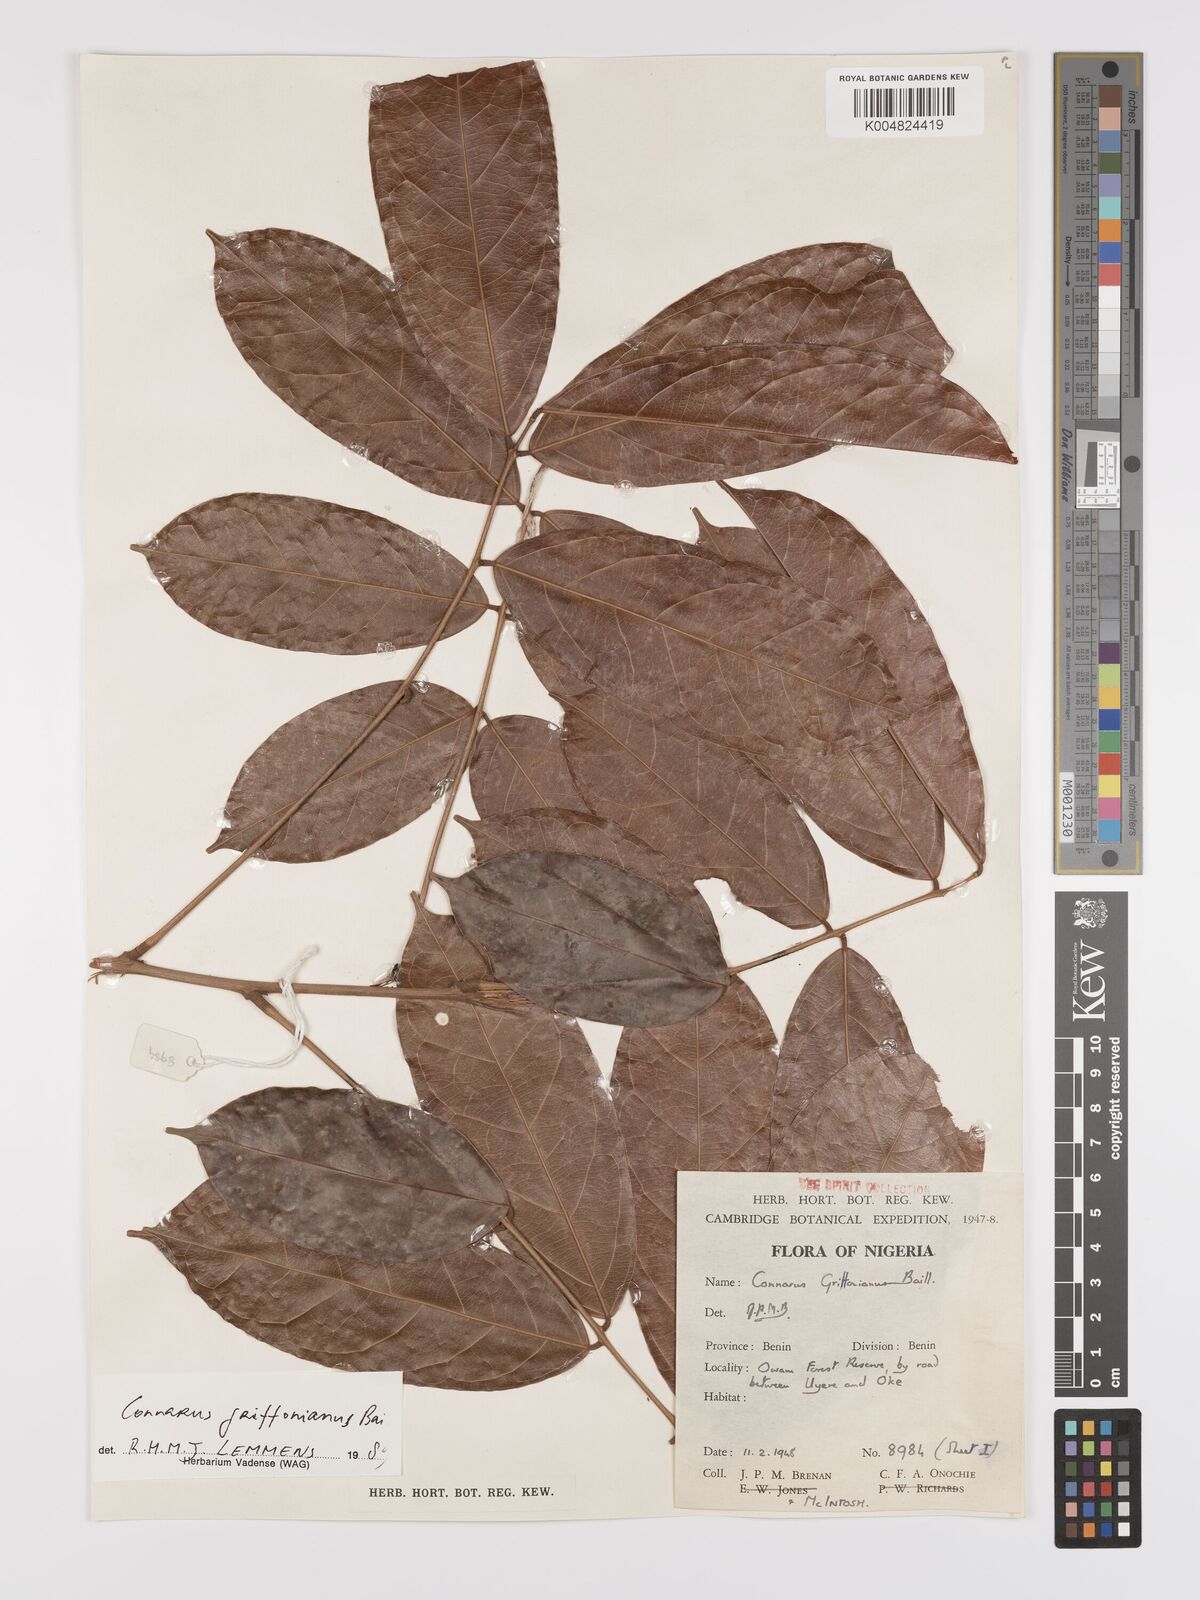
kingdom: Plantae
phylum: Tracheophyta
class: Magnoliopsida
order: Oxalidales
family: Connaraceae
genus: Connarus
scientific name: Connarus griffonianus
